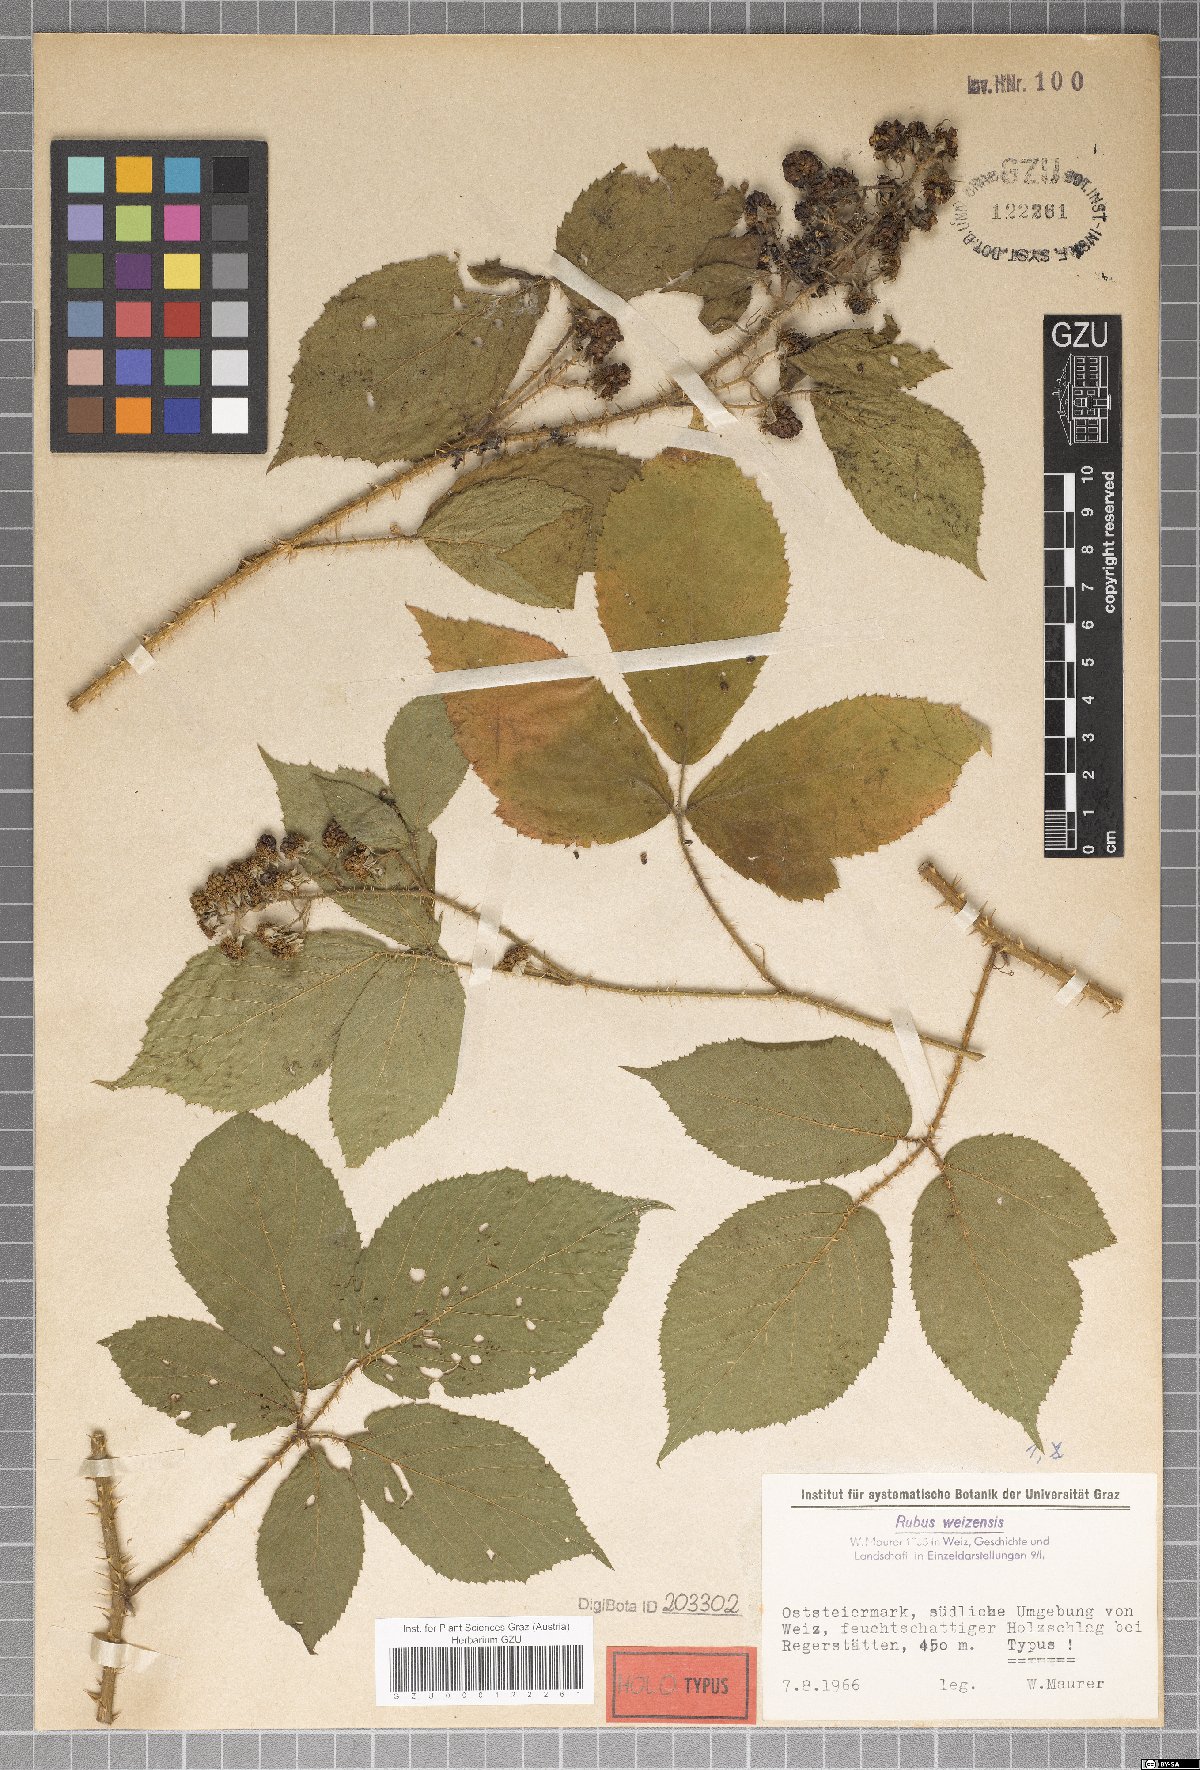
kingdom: Plantae
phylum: Tracheophyta
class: Magnoliopsida
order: Rosales
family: Rosaceae
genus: Rubus
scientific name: Rubus weizensis
